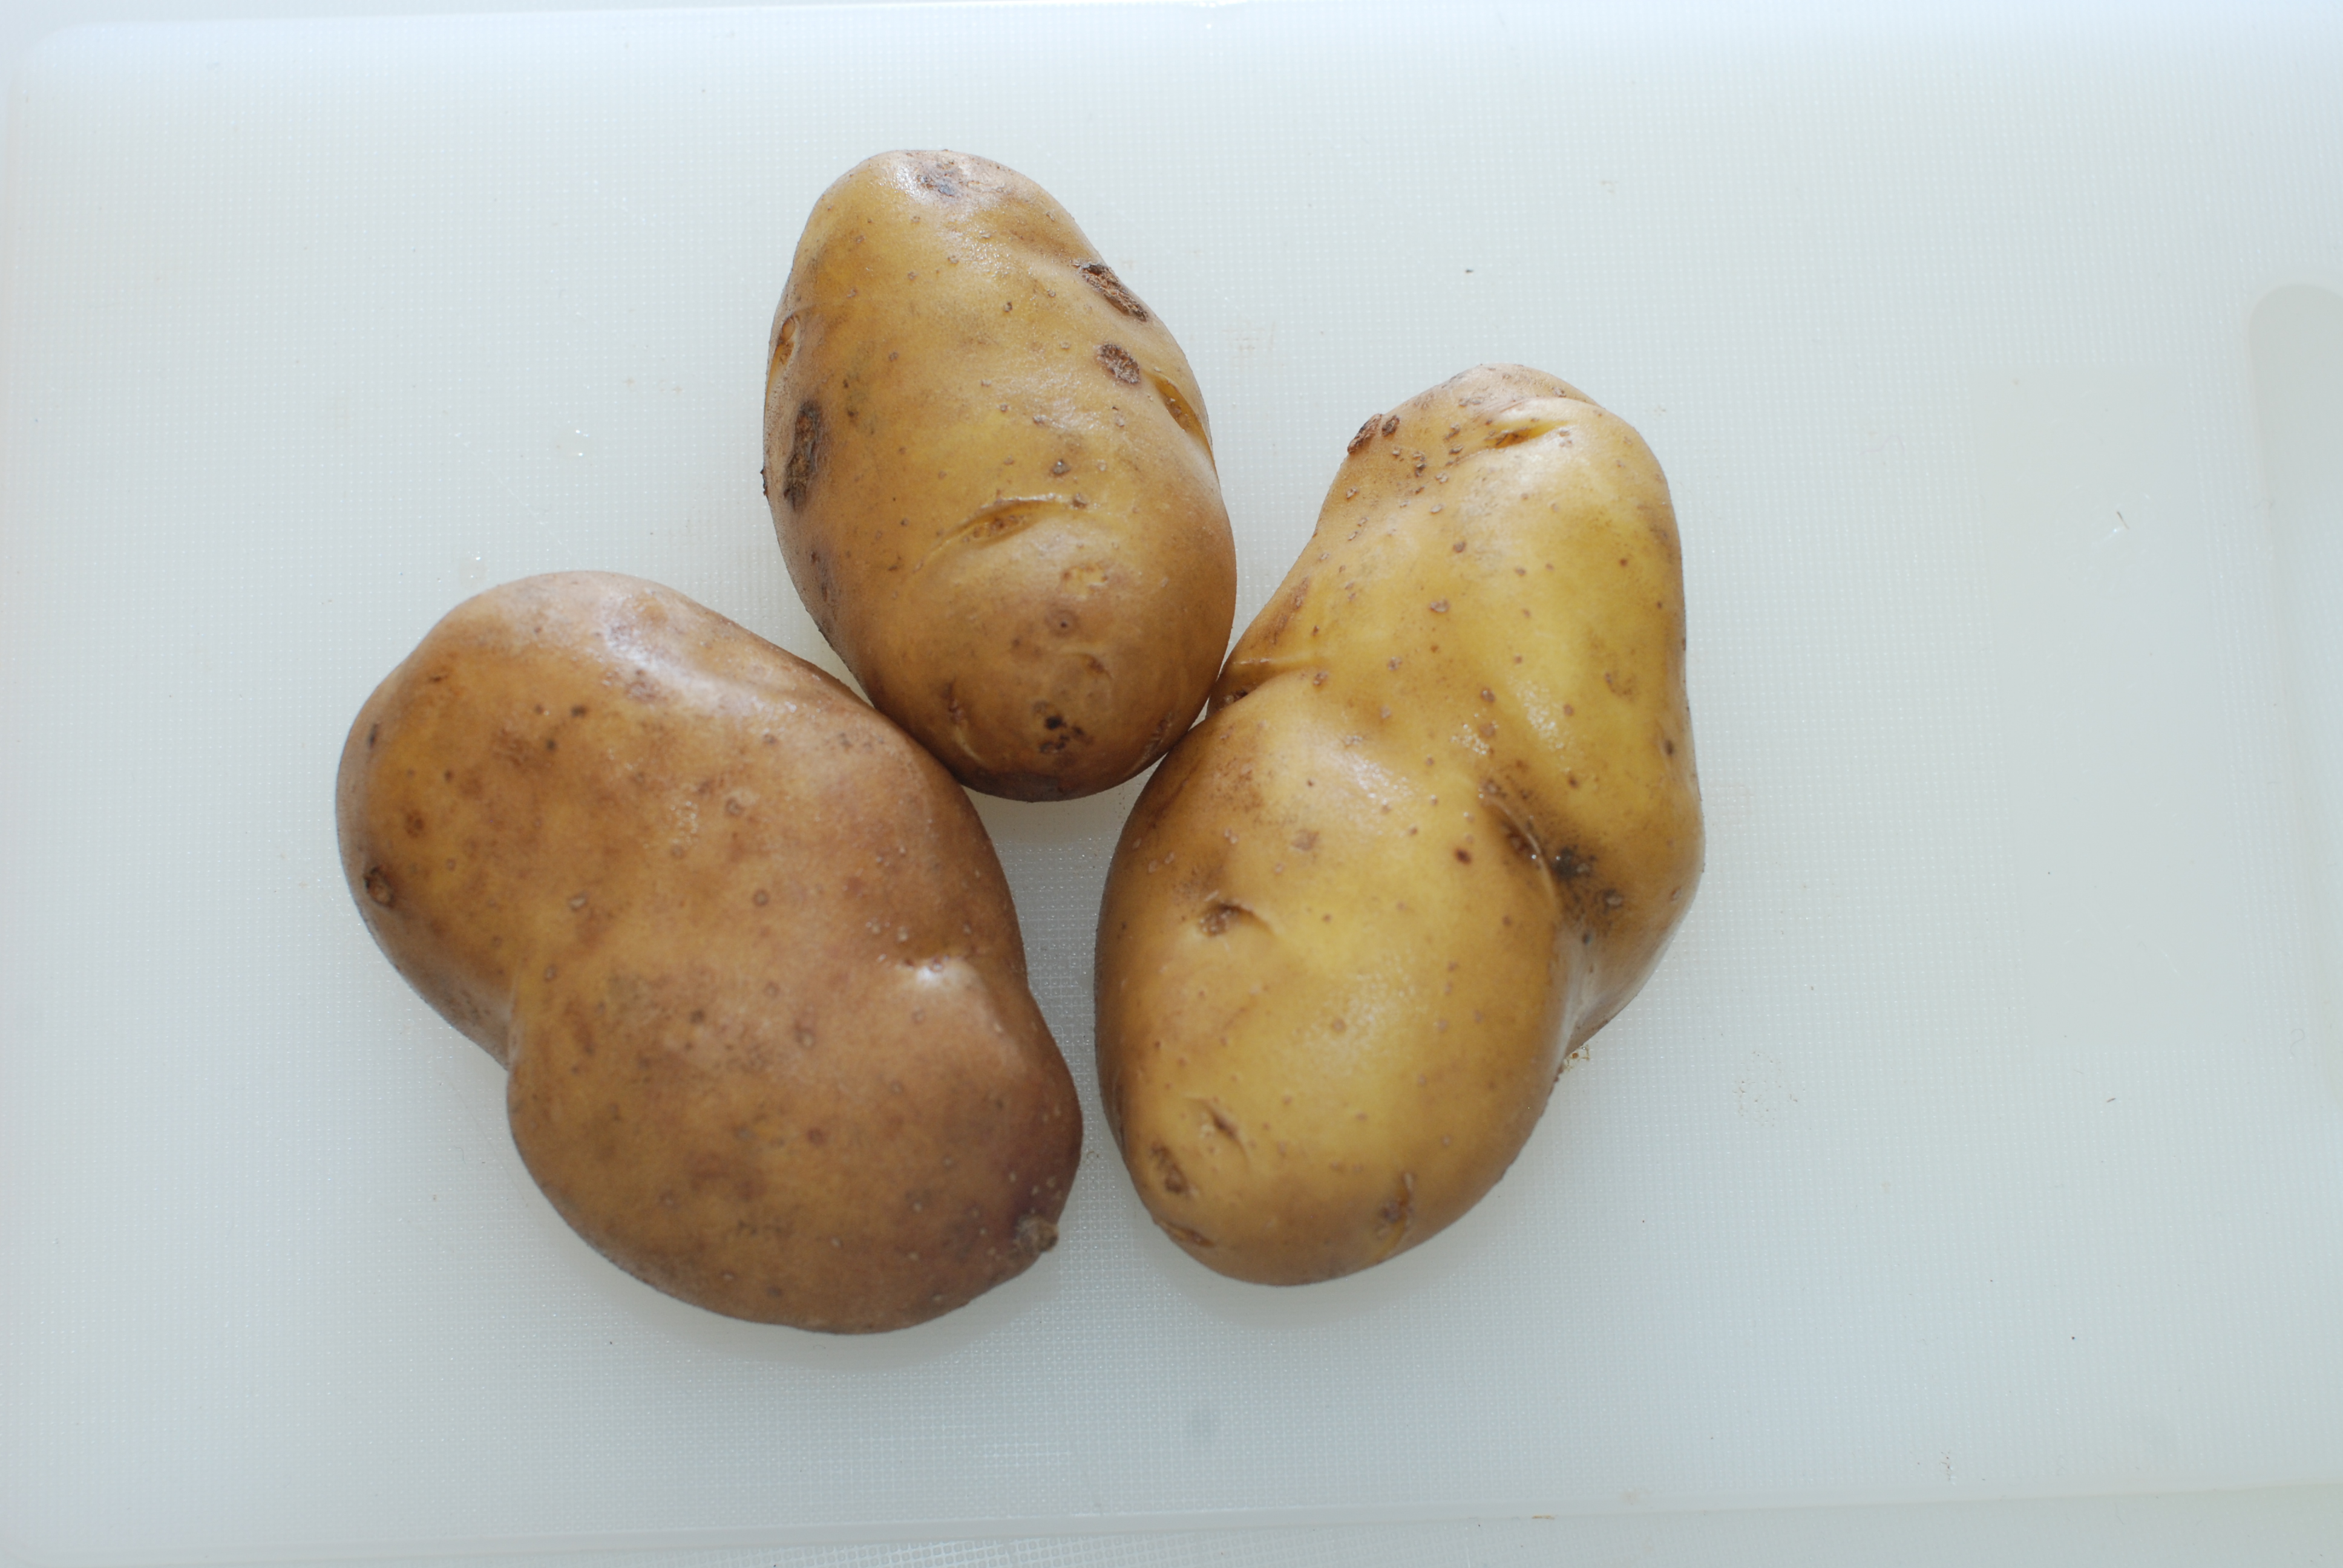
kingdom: Plantae
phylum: Tracheophyta
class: Magnoliopsida
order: Solanales
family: Solanaceae
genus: Solanum
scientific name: Solanum tuberosum
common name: Potato
